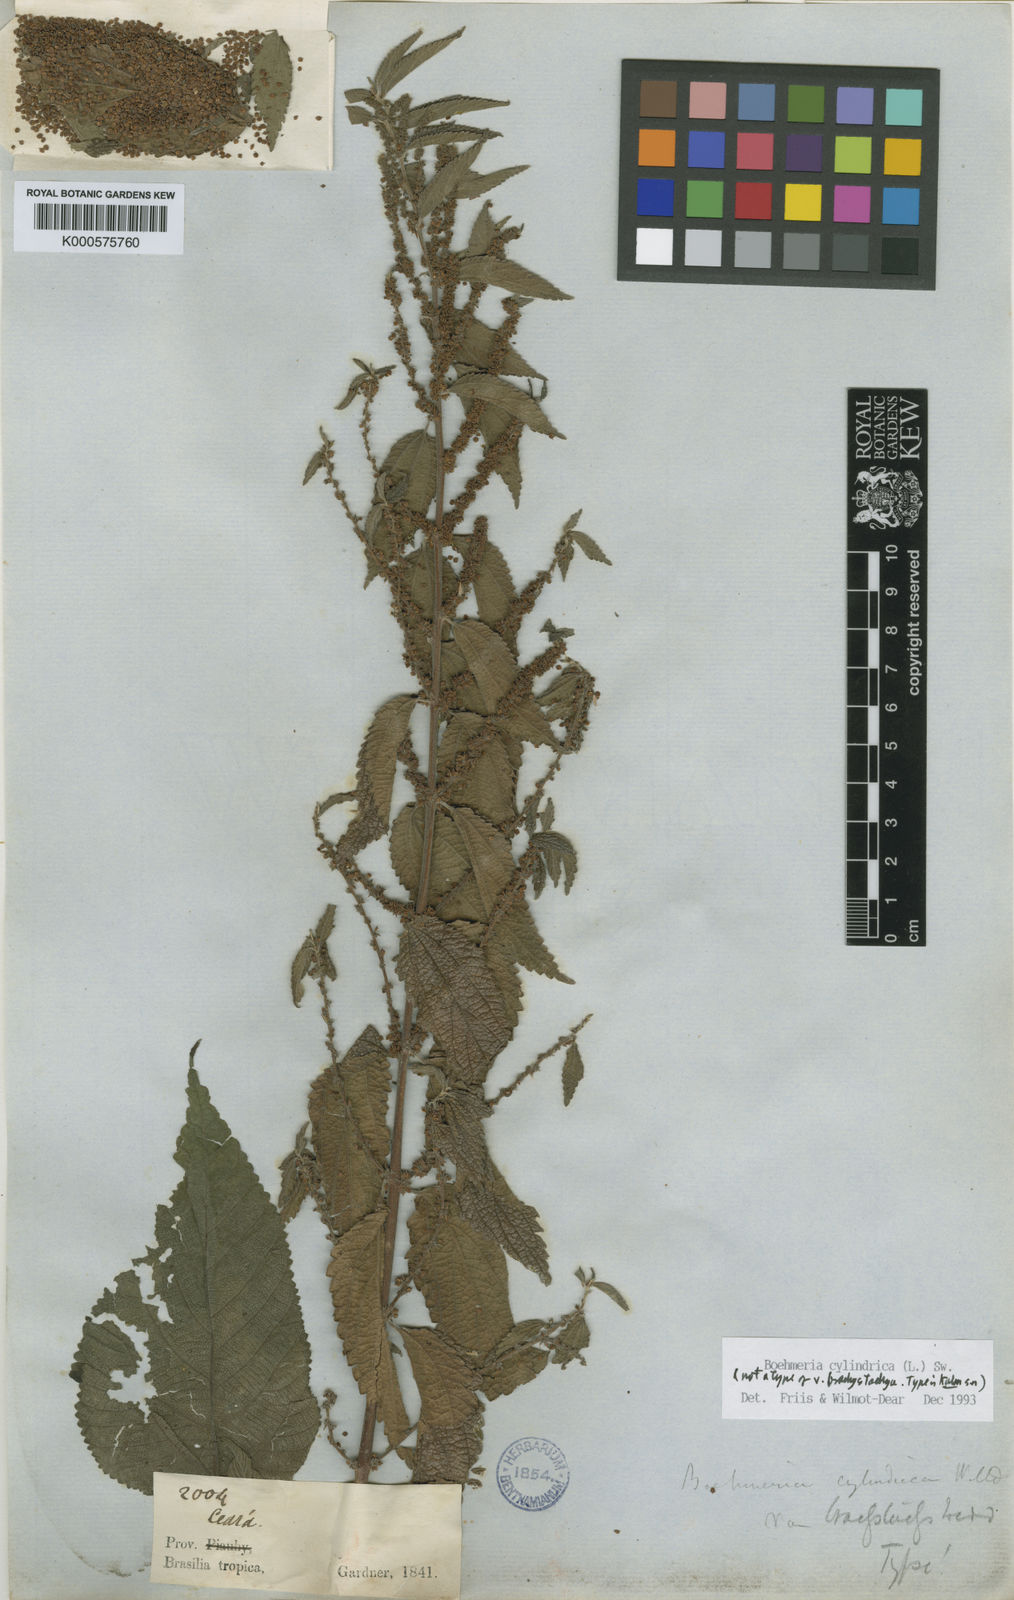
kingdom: Plantae
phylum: Tracheophyta
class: Magnoliopsida
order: Rosales
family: Urticaceae
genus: Boehmeria
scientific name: Boehmeria cylindrica
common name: Bog-hemp
